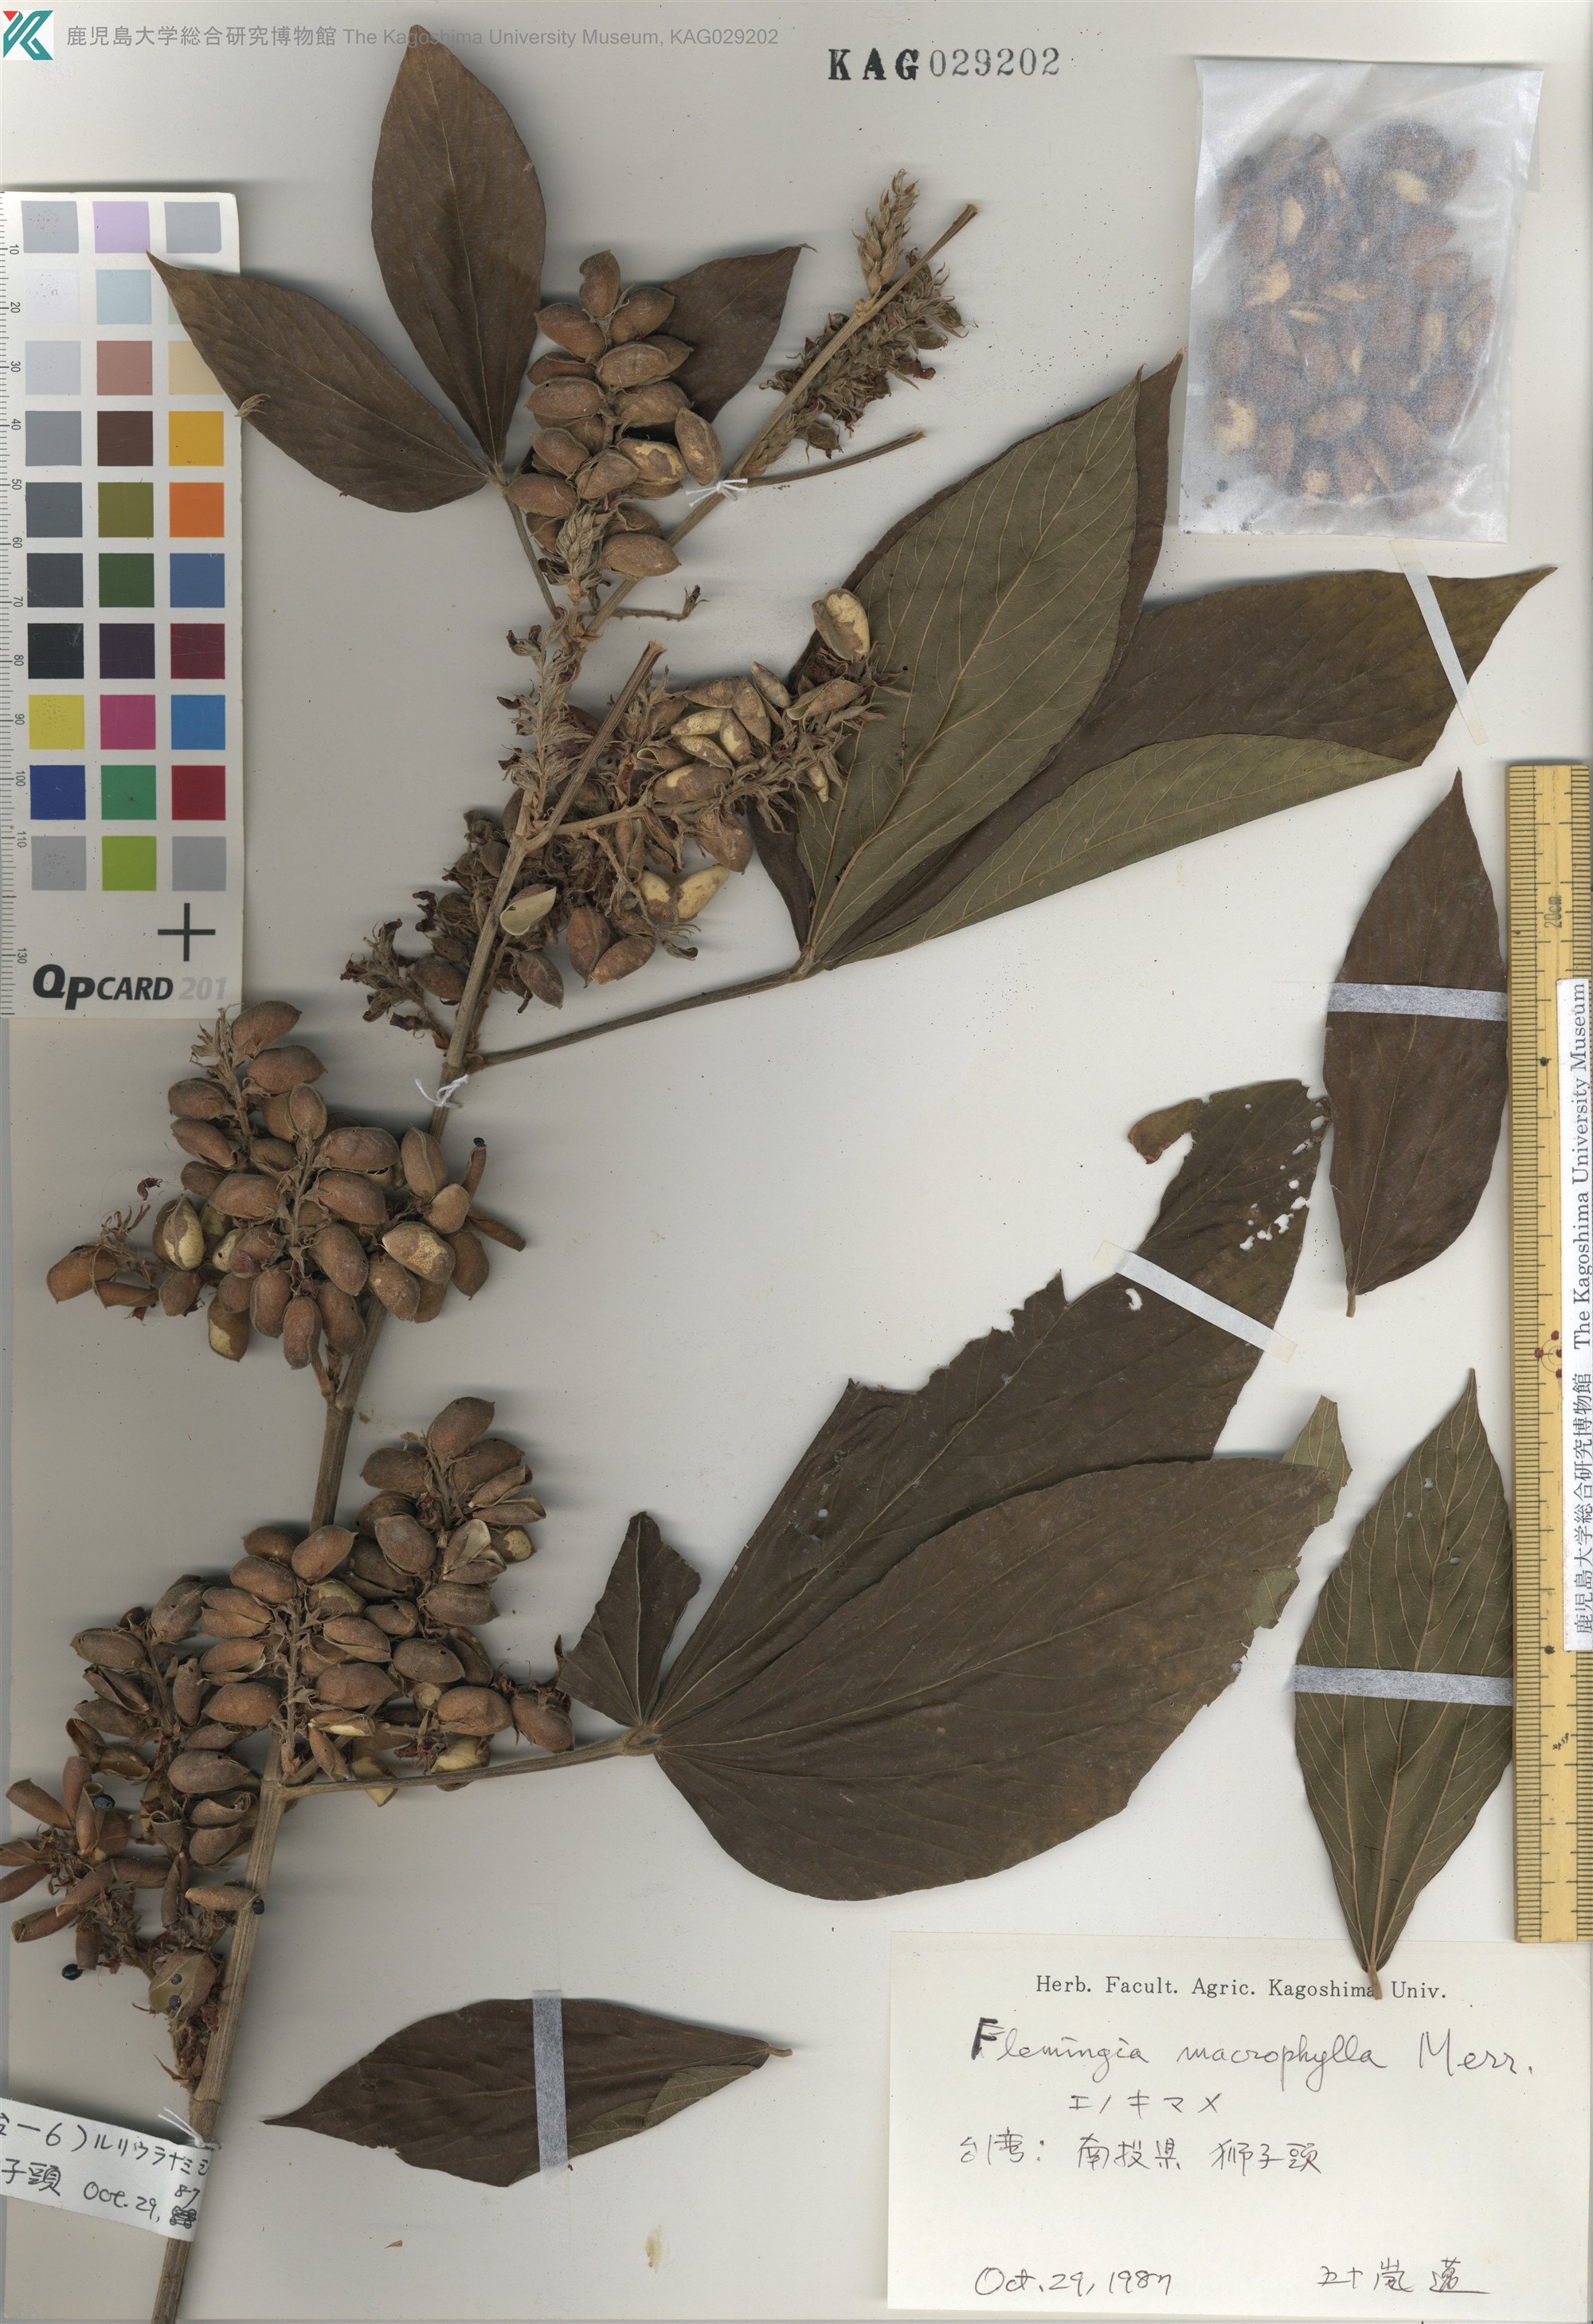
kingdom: Plantae
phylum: Tracheophyta
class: Magnoliopsida
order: Fabales
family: Fabaceae
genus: Flemingia
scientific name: Flemingia macrophylla
